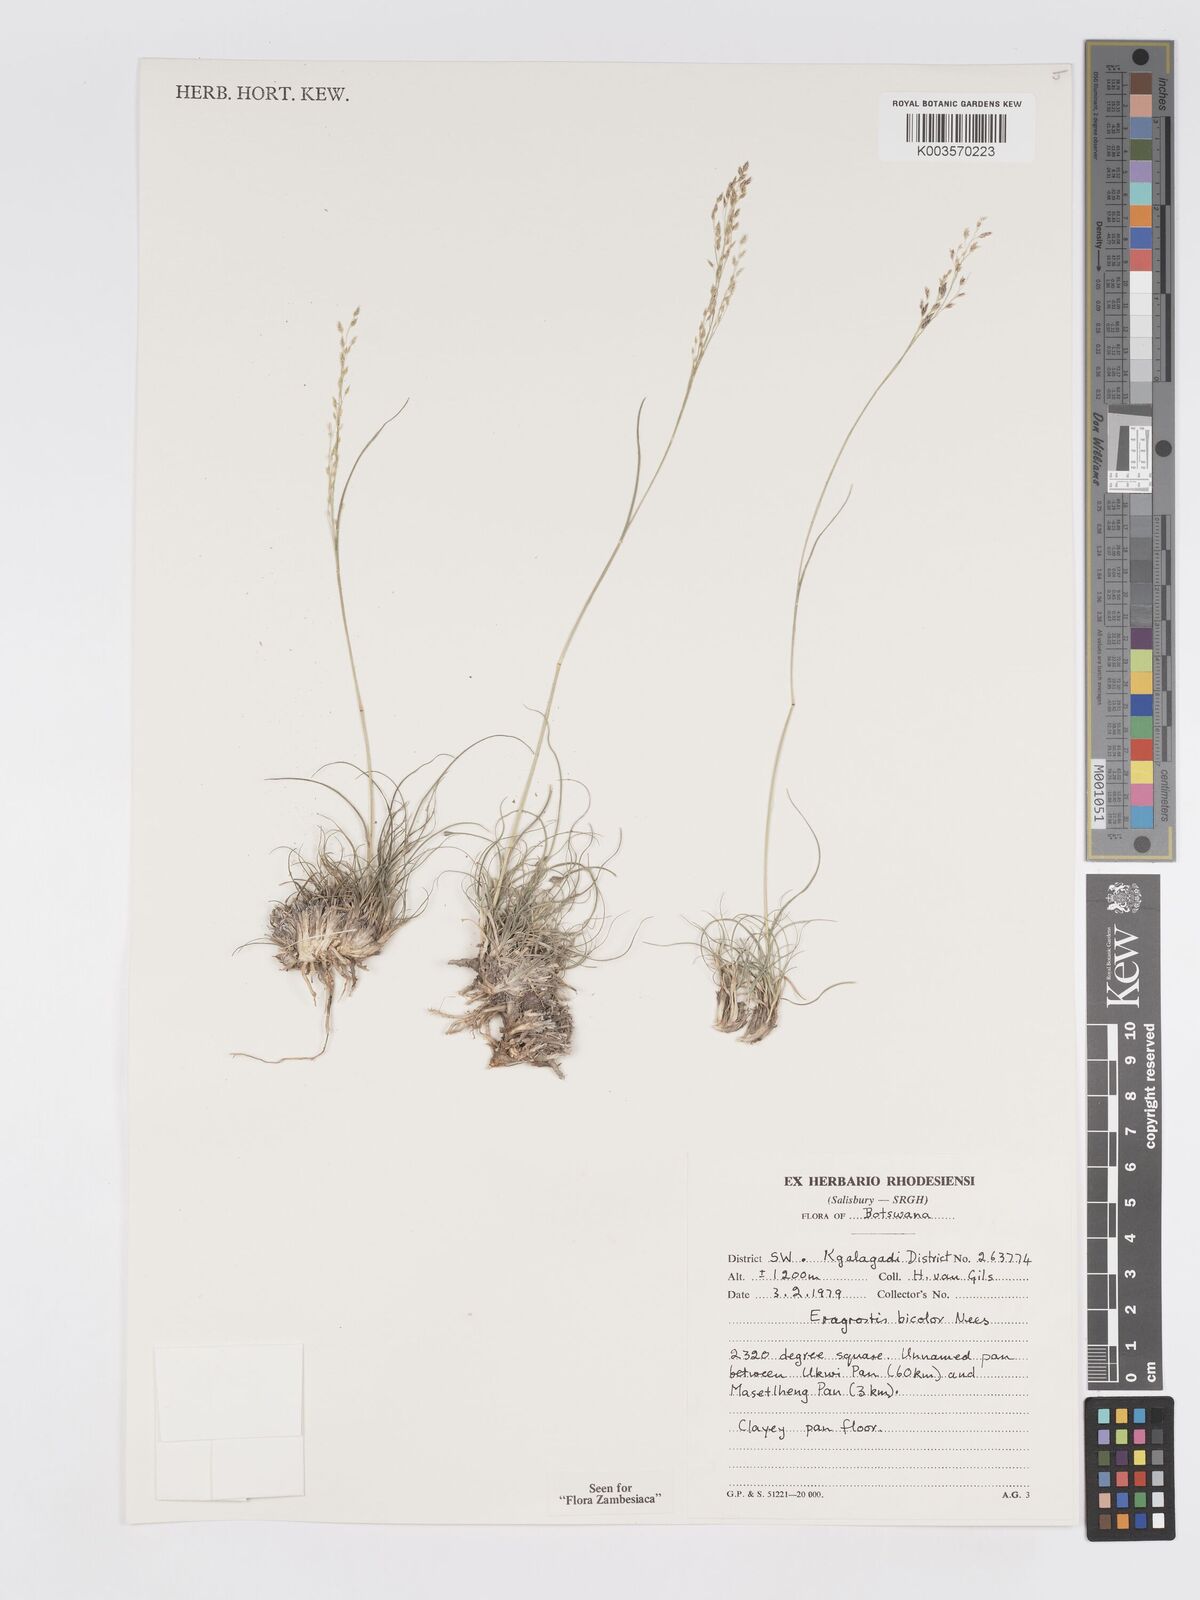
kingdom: Plantae
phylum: Tracheophyta
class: Liliopsida
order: Poales
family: Poaceae
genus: Eragrostis
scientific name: Eragrostis bicolor
